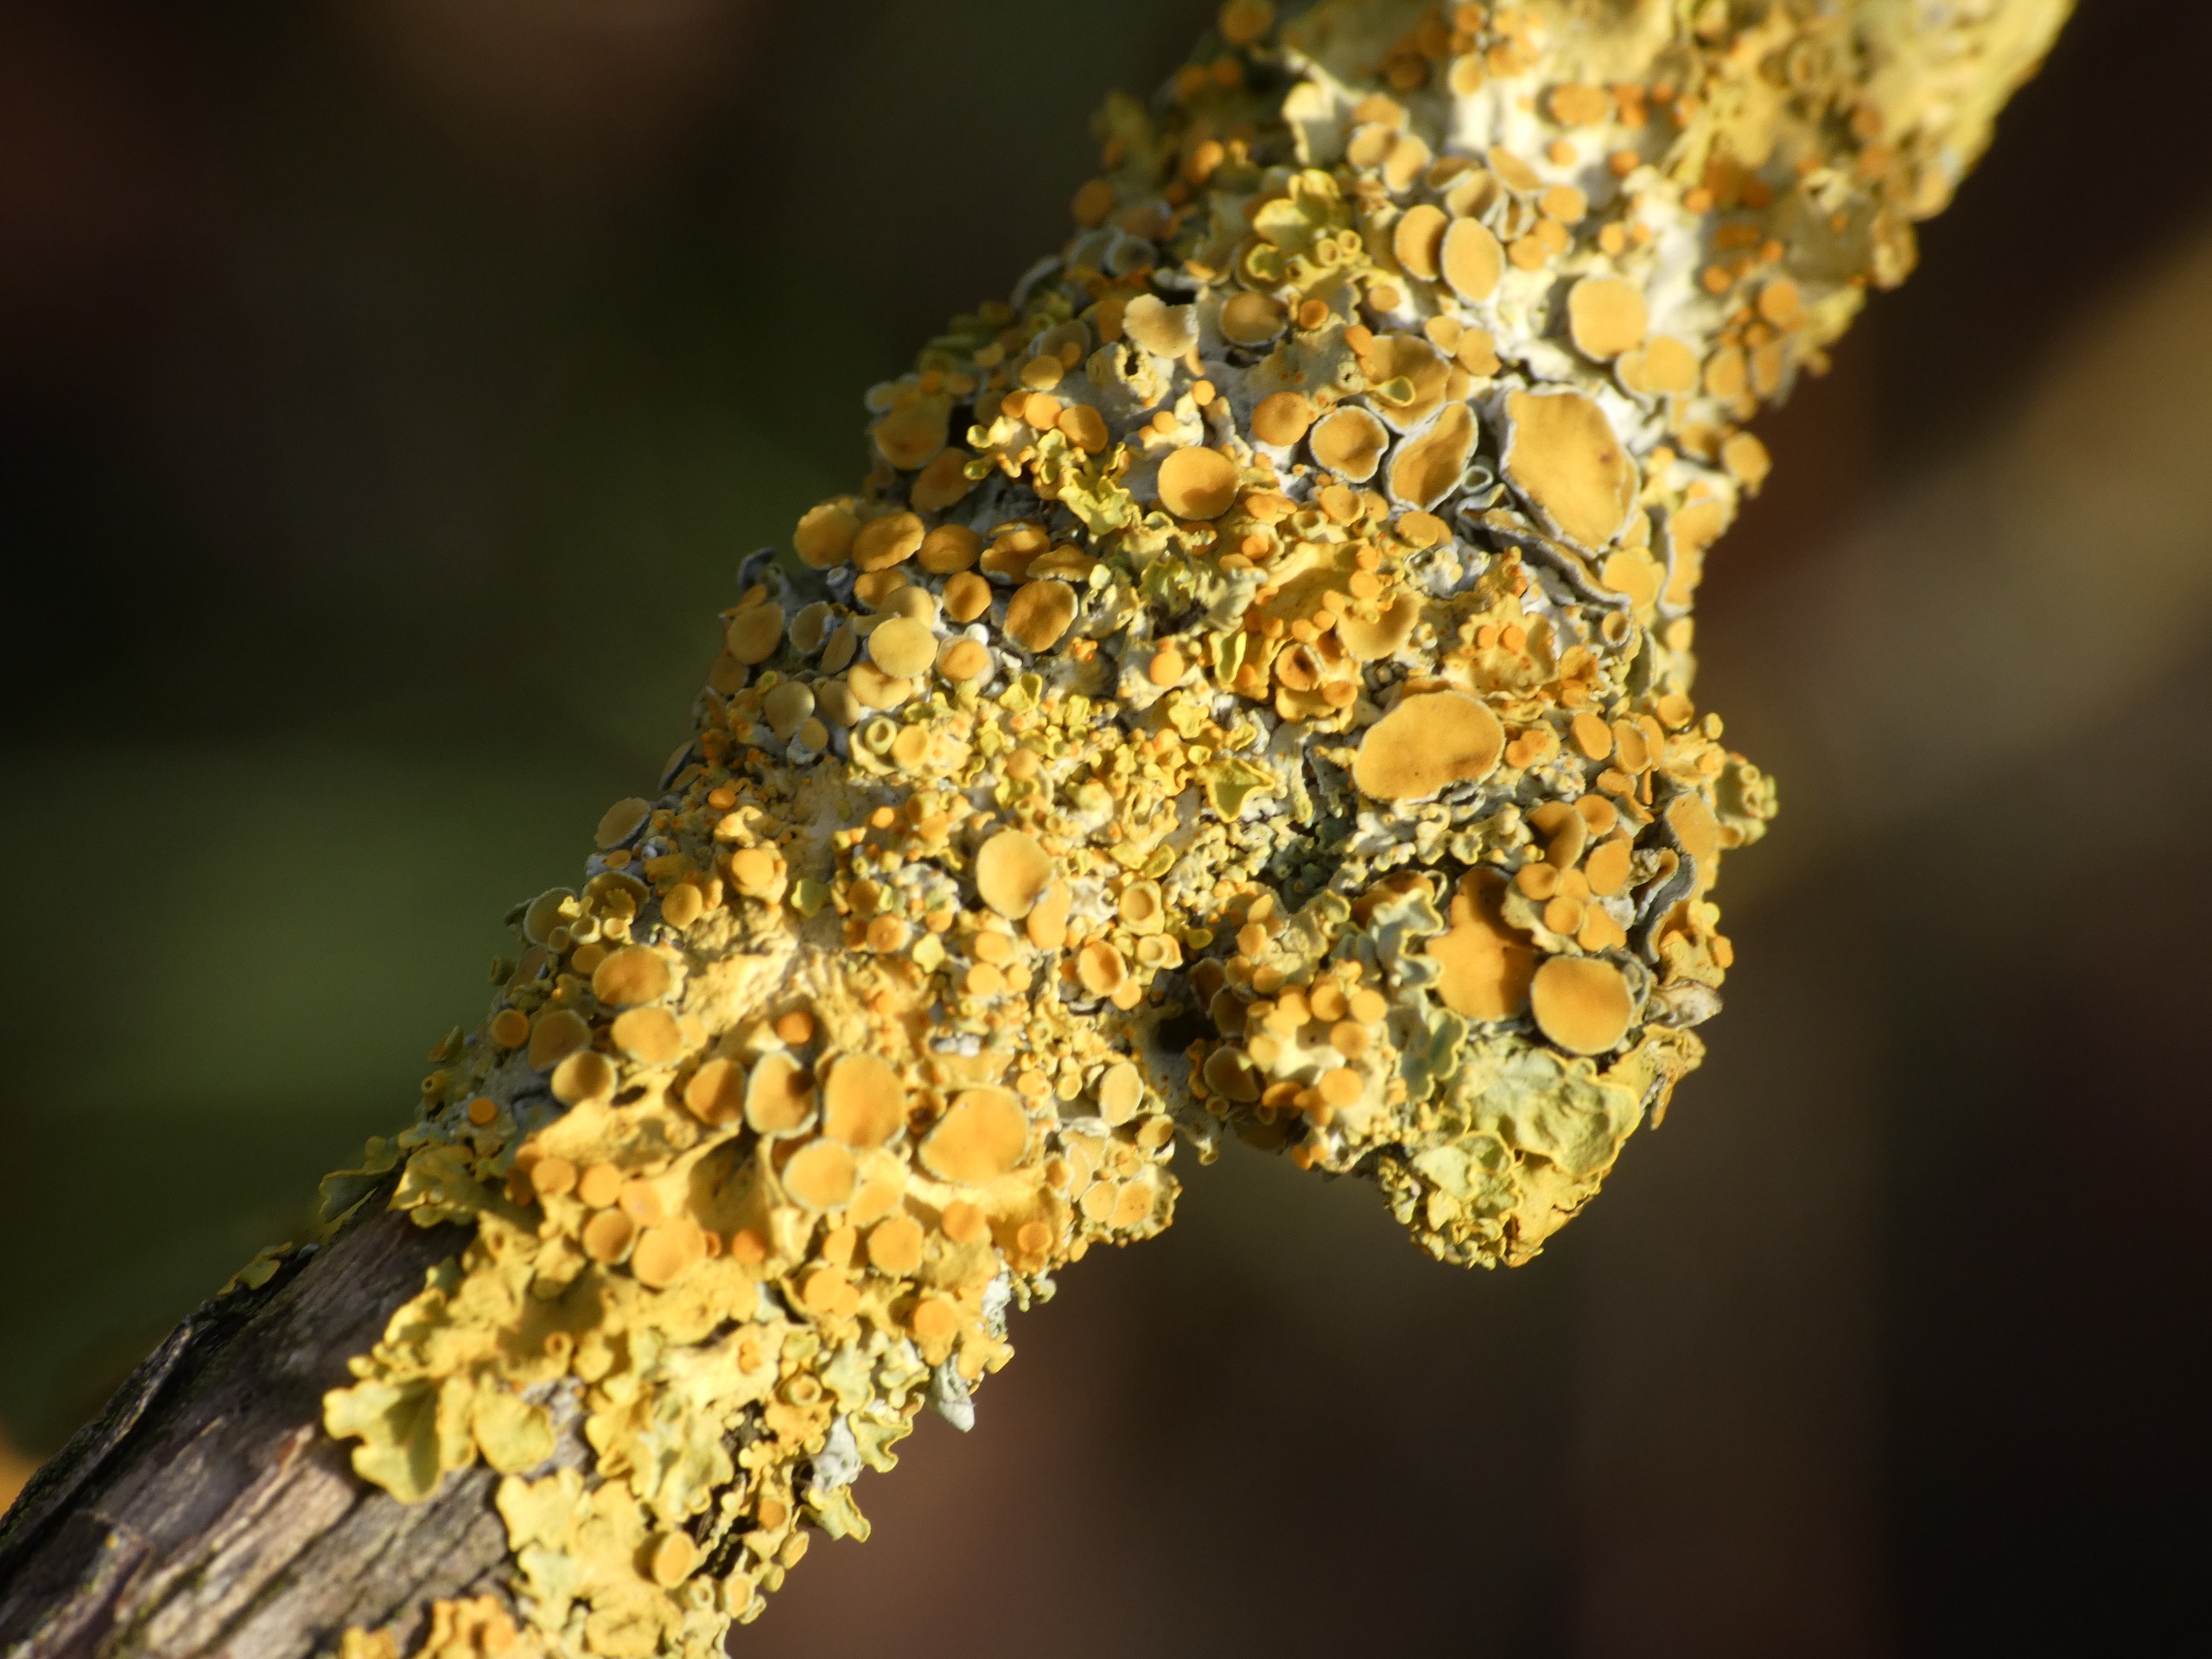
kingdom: Fungi
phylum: Ascomycota
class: Lecanoromycetes
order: Teloschistales
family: Teloschistaceae
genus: Xanthoria
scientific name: Xanthoria parietina
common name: Almindelig væggelav
